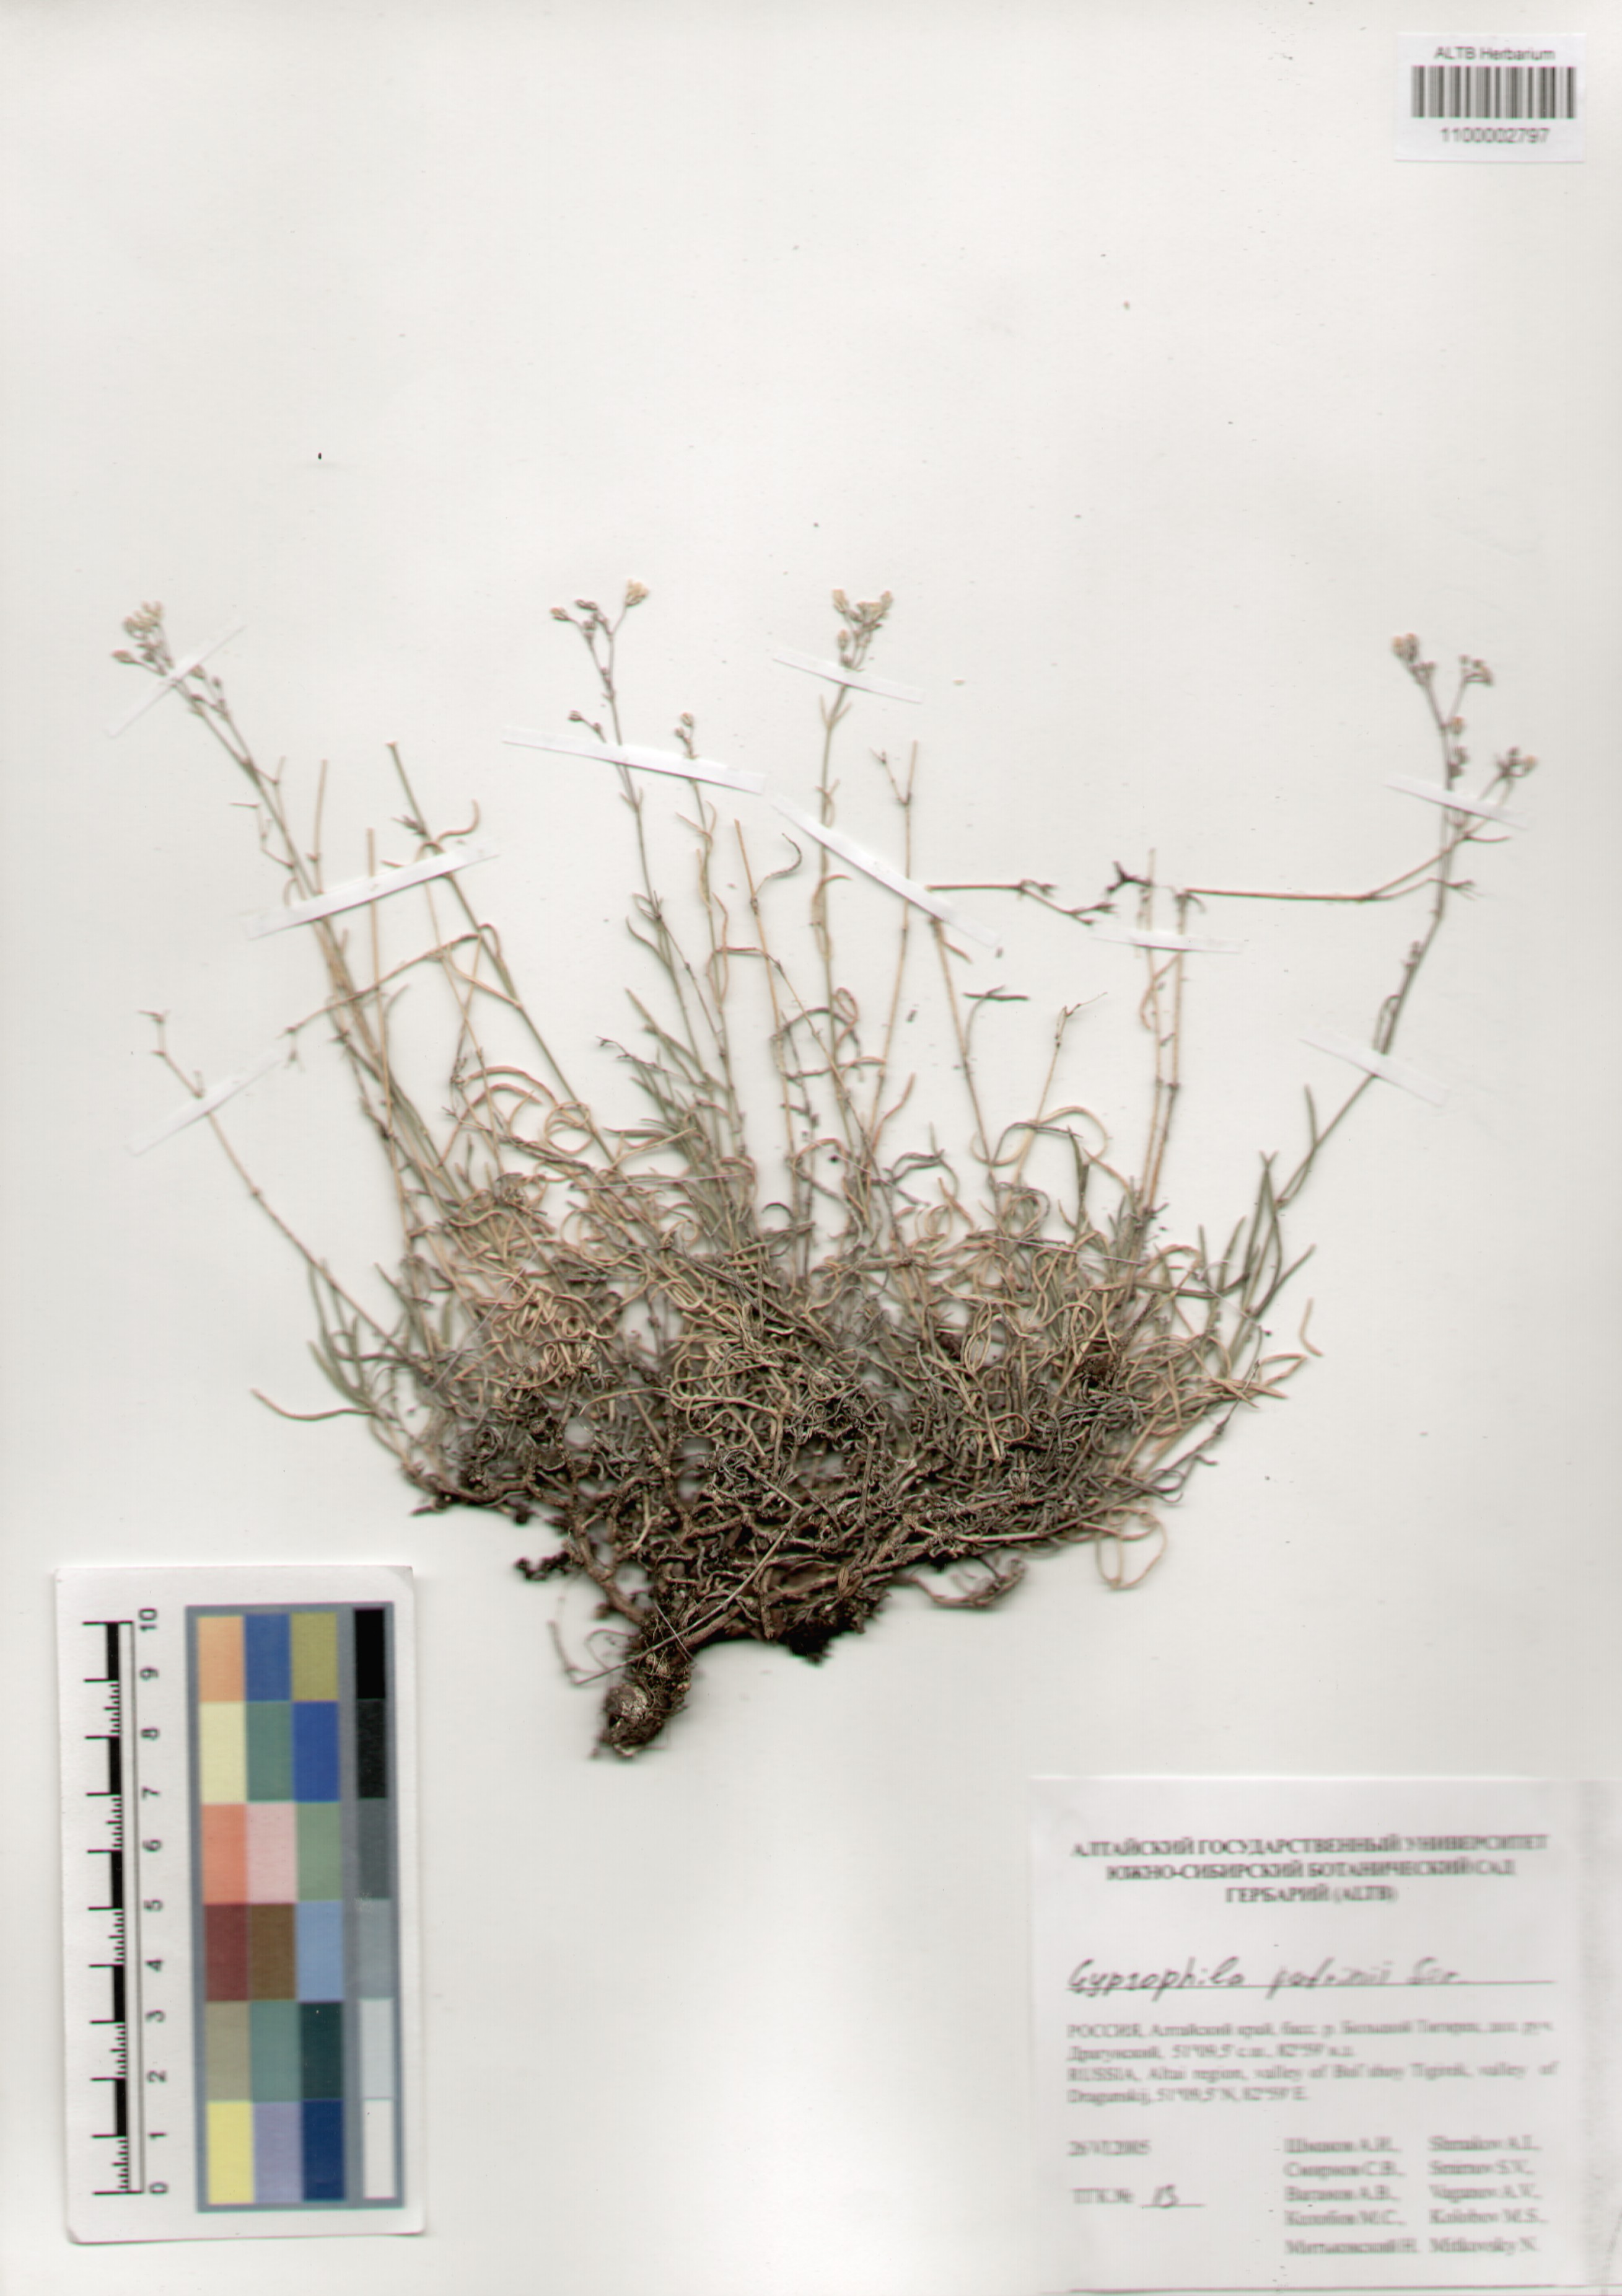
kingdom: Plantae
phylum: Tracheophyta
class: Magnoliopsida
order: Caryophyllales
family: Caryophyllaceae
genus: Gypsophila
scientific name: Gypsophila patrinii
